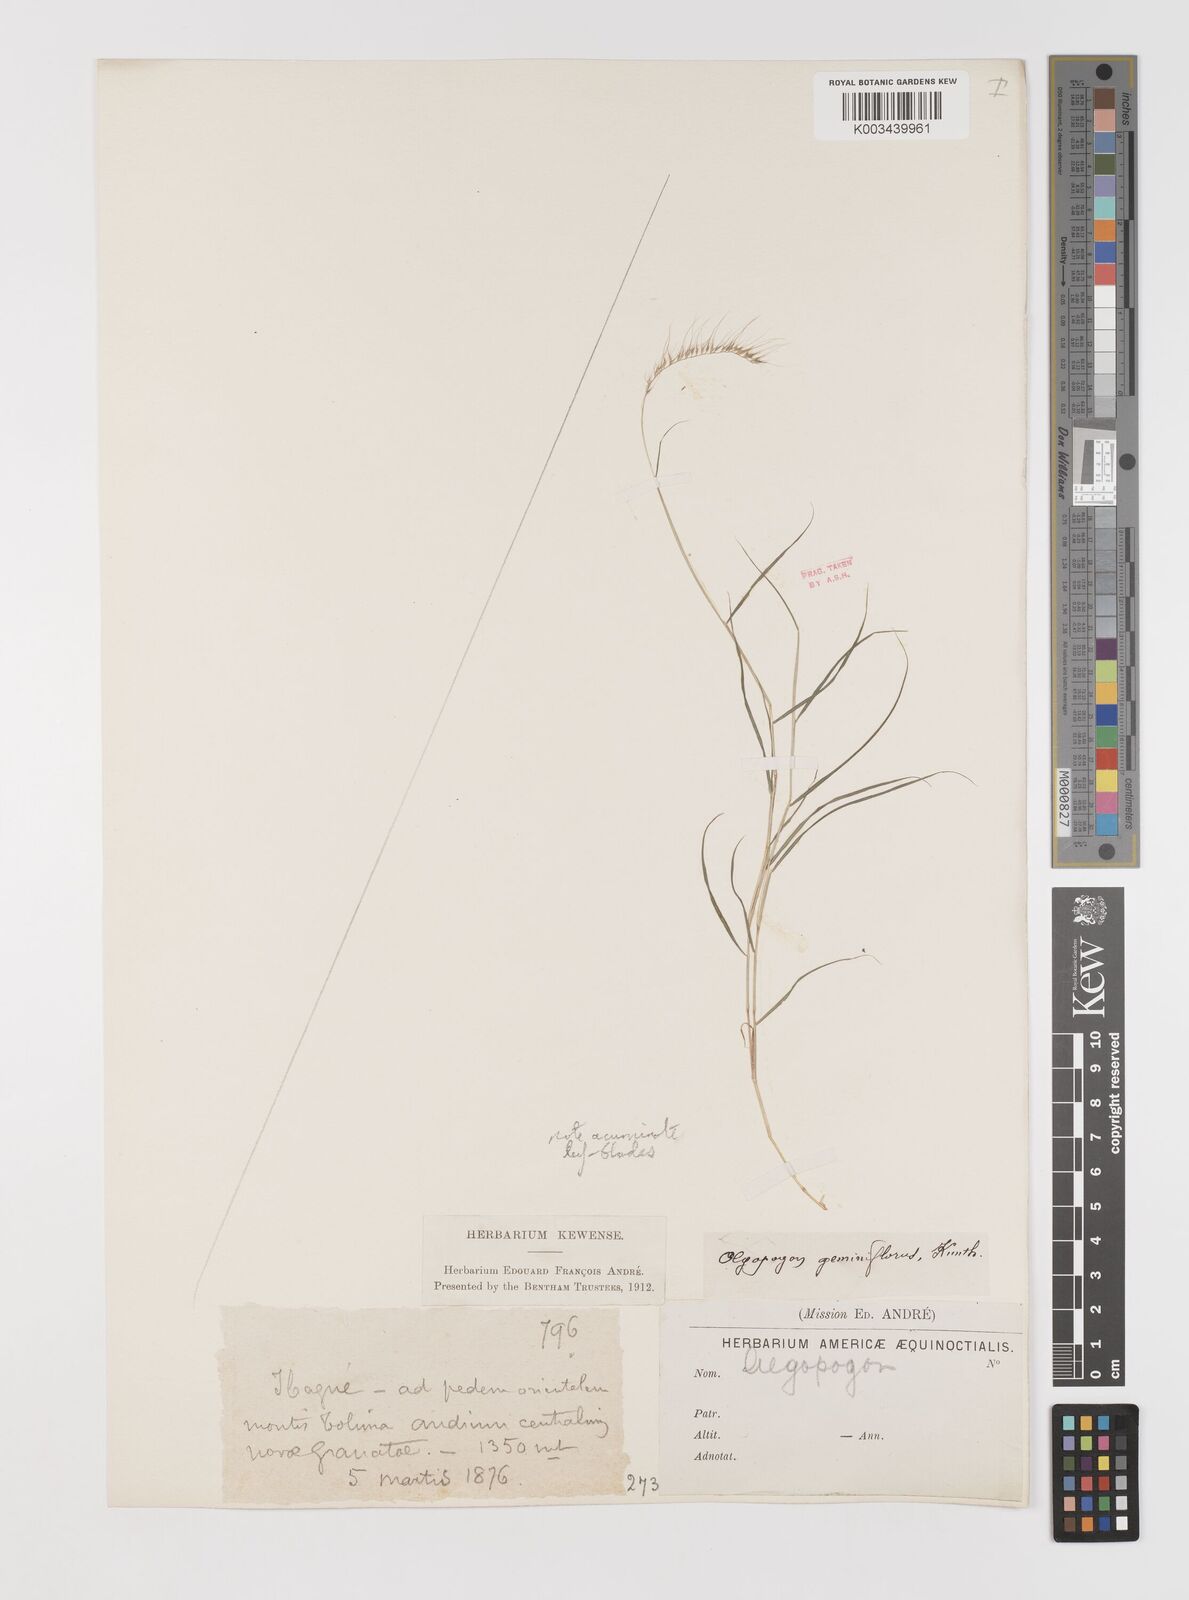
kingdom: Plantae
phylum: Tracheophyta
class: Liliopsida
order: Poales
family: Poaceae
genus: Muhlenbergia
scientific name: Muhlenbergia bryophilus
